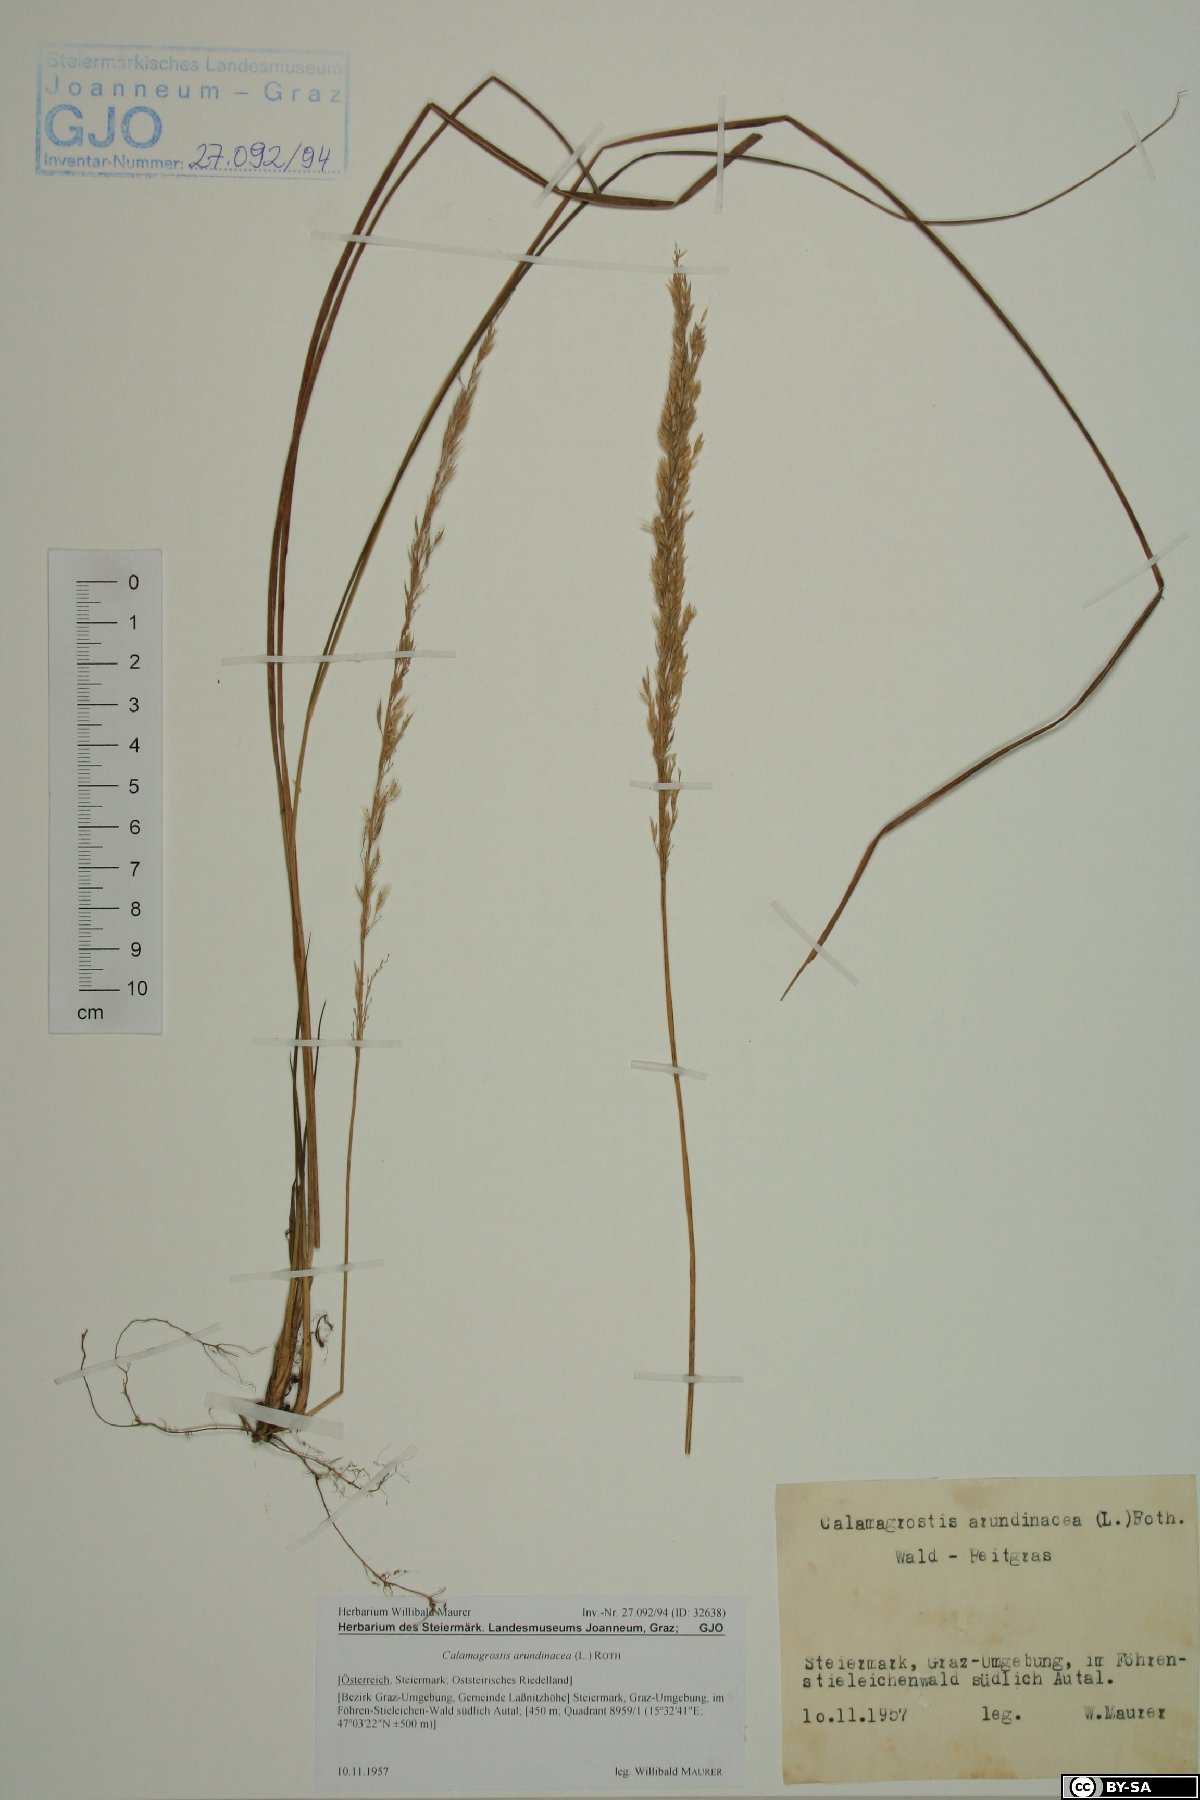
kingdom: Plantae
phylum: Tracheophyta
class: Liliopsida
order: Poales
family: Poaceae
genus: Calamagrostis
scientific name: Calamagrostis arundinacea
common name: Metskastik
